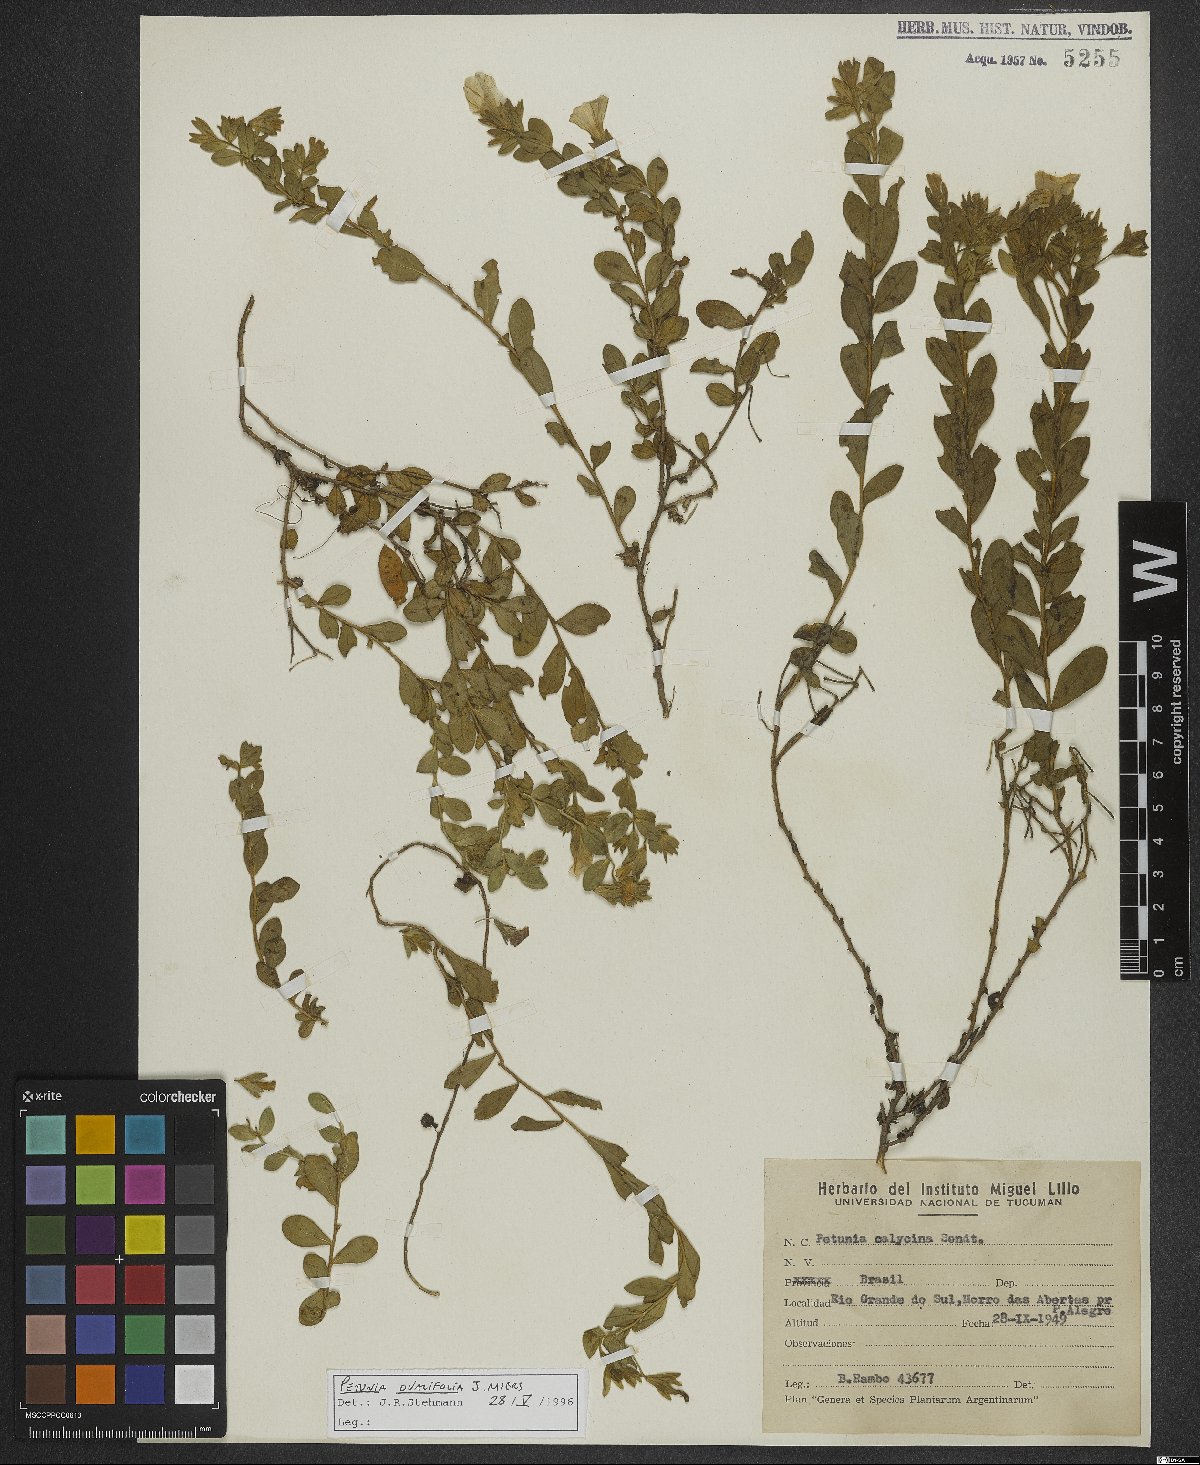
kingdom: Plantae
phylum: Tracheophyta
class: Magnoliopsida
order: Solanales
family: Solanaceae
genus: Calibrachoa
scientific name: Calibrachoa calycina
